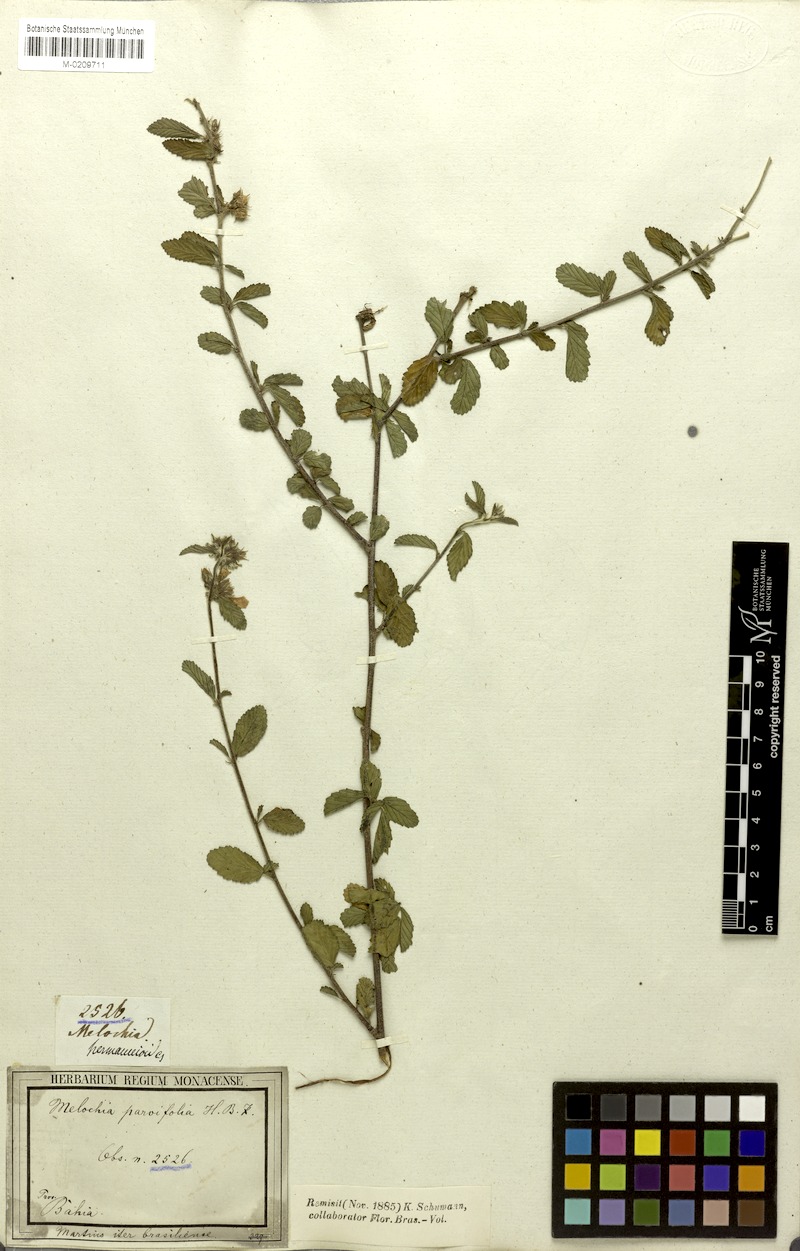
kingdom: Plantae
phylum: Tracheophyta
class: Magnoliopsida
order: Malvales
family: Malvaceae
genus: Melochia
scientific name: Melochia parvifolia
